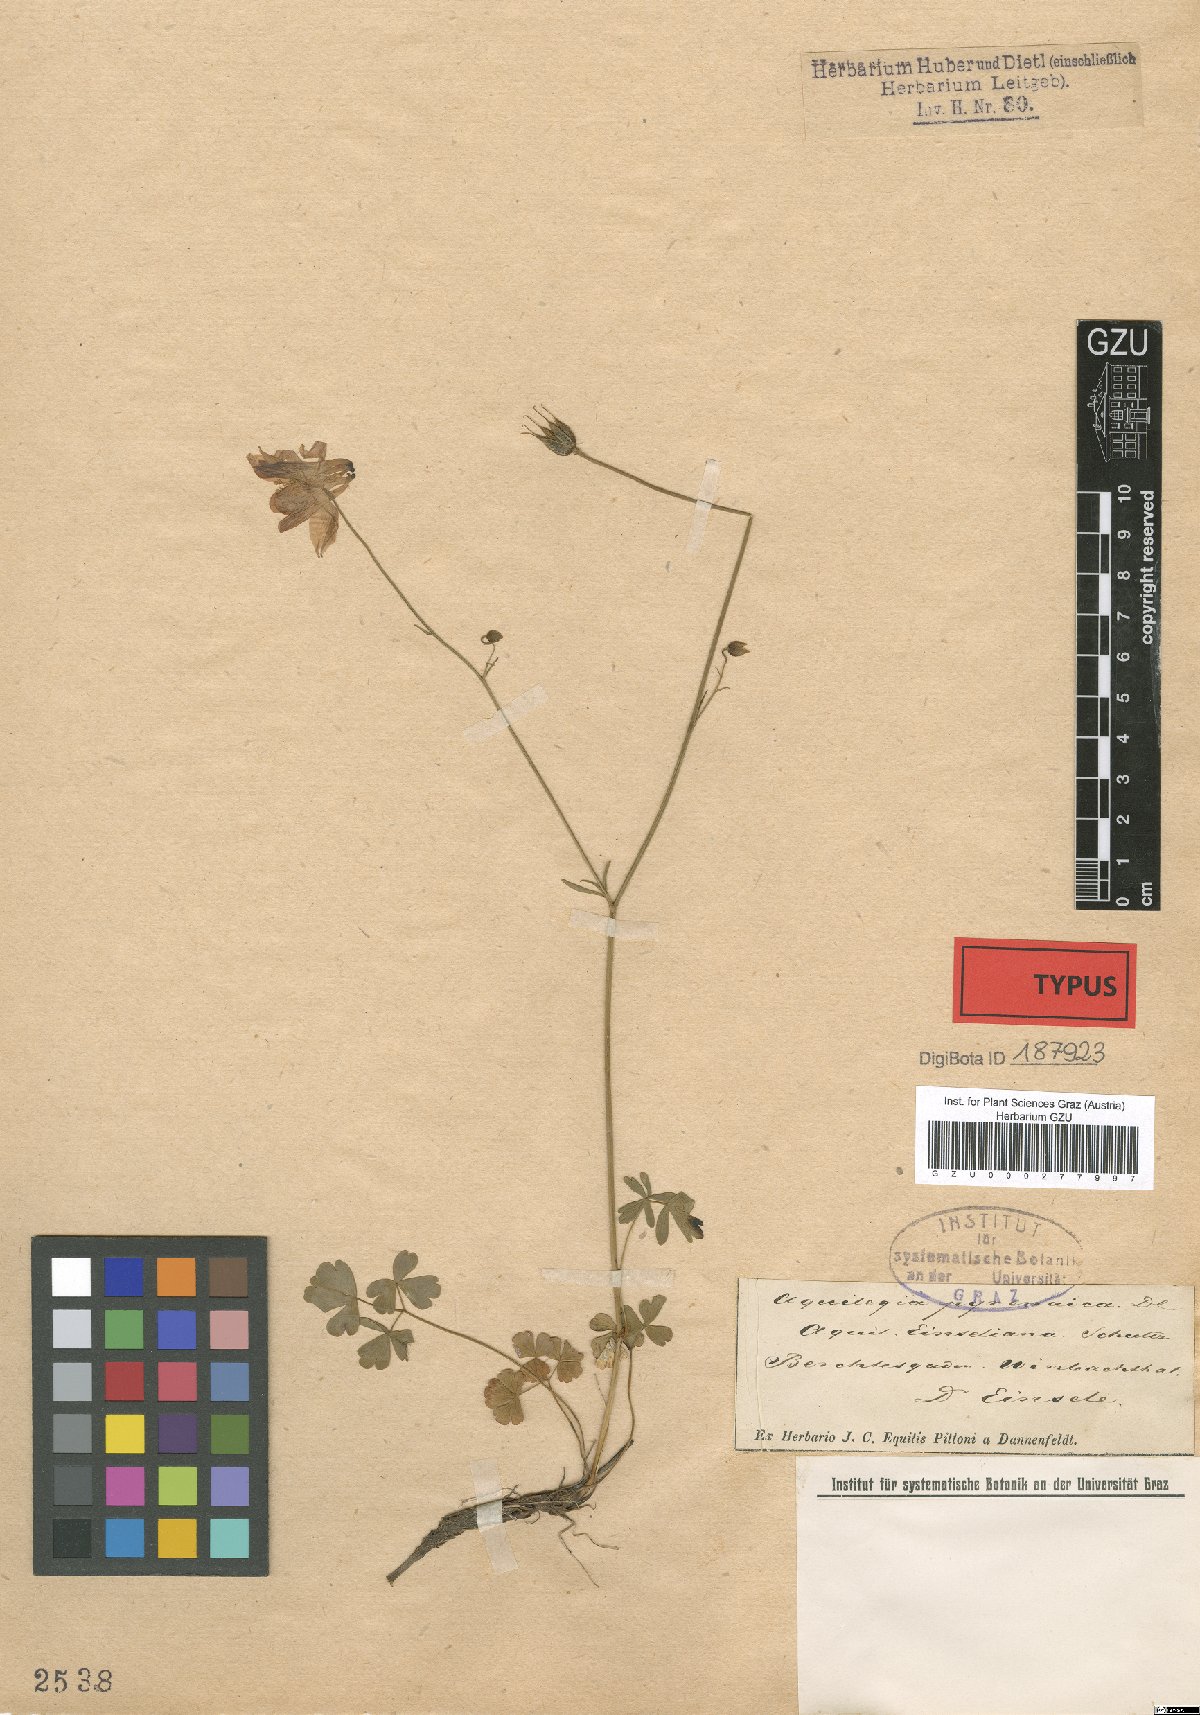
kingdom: Plantae
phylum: Tracheophyta
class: Magnoliopsida
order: Ranunculales
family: Ranunculaceae
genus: Aquilegia
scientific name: Aquilegia einseleana
